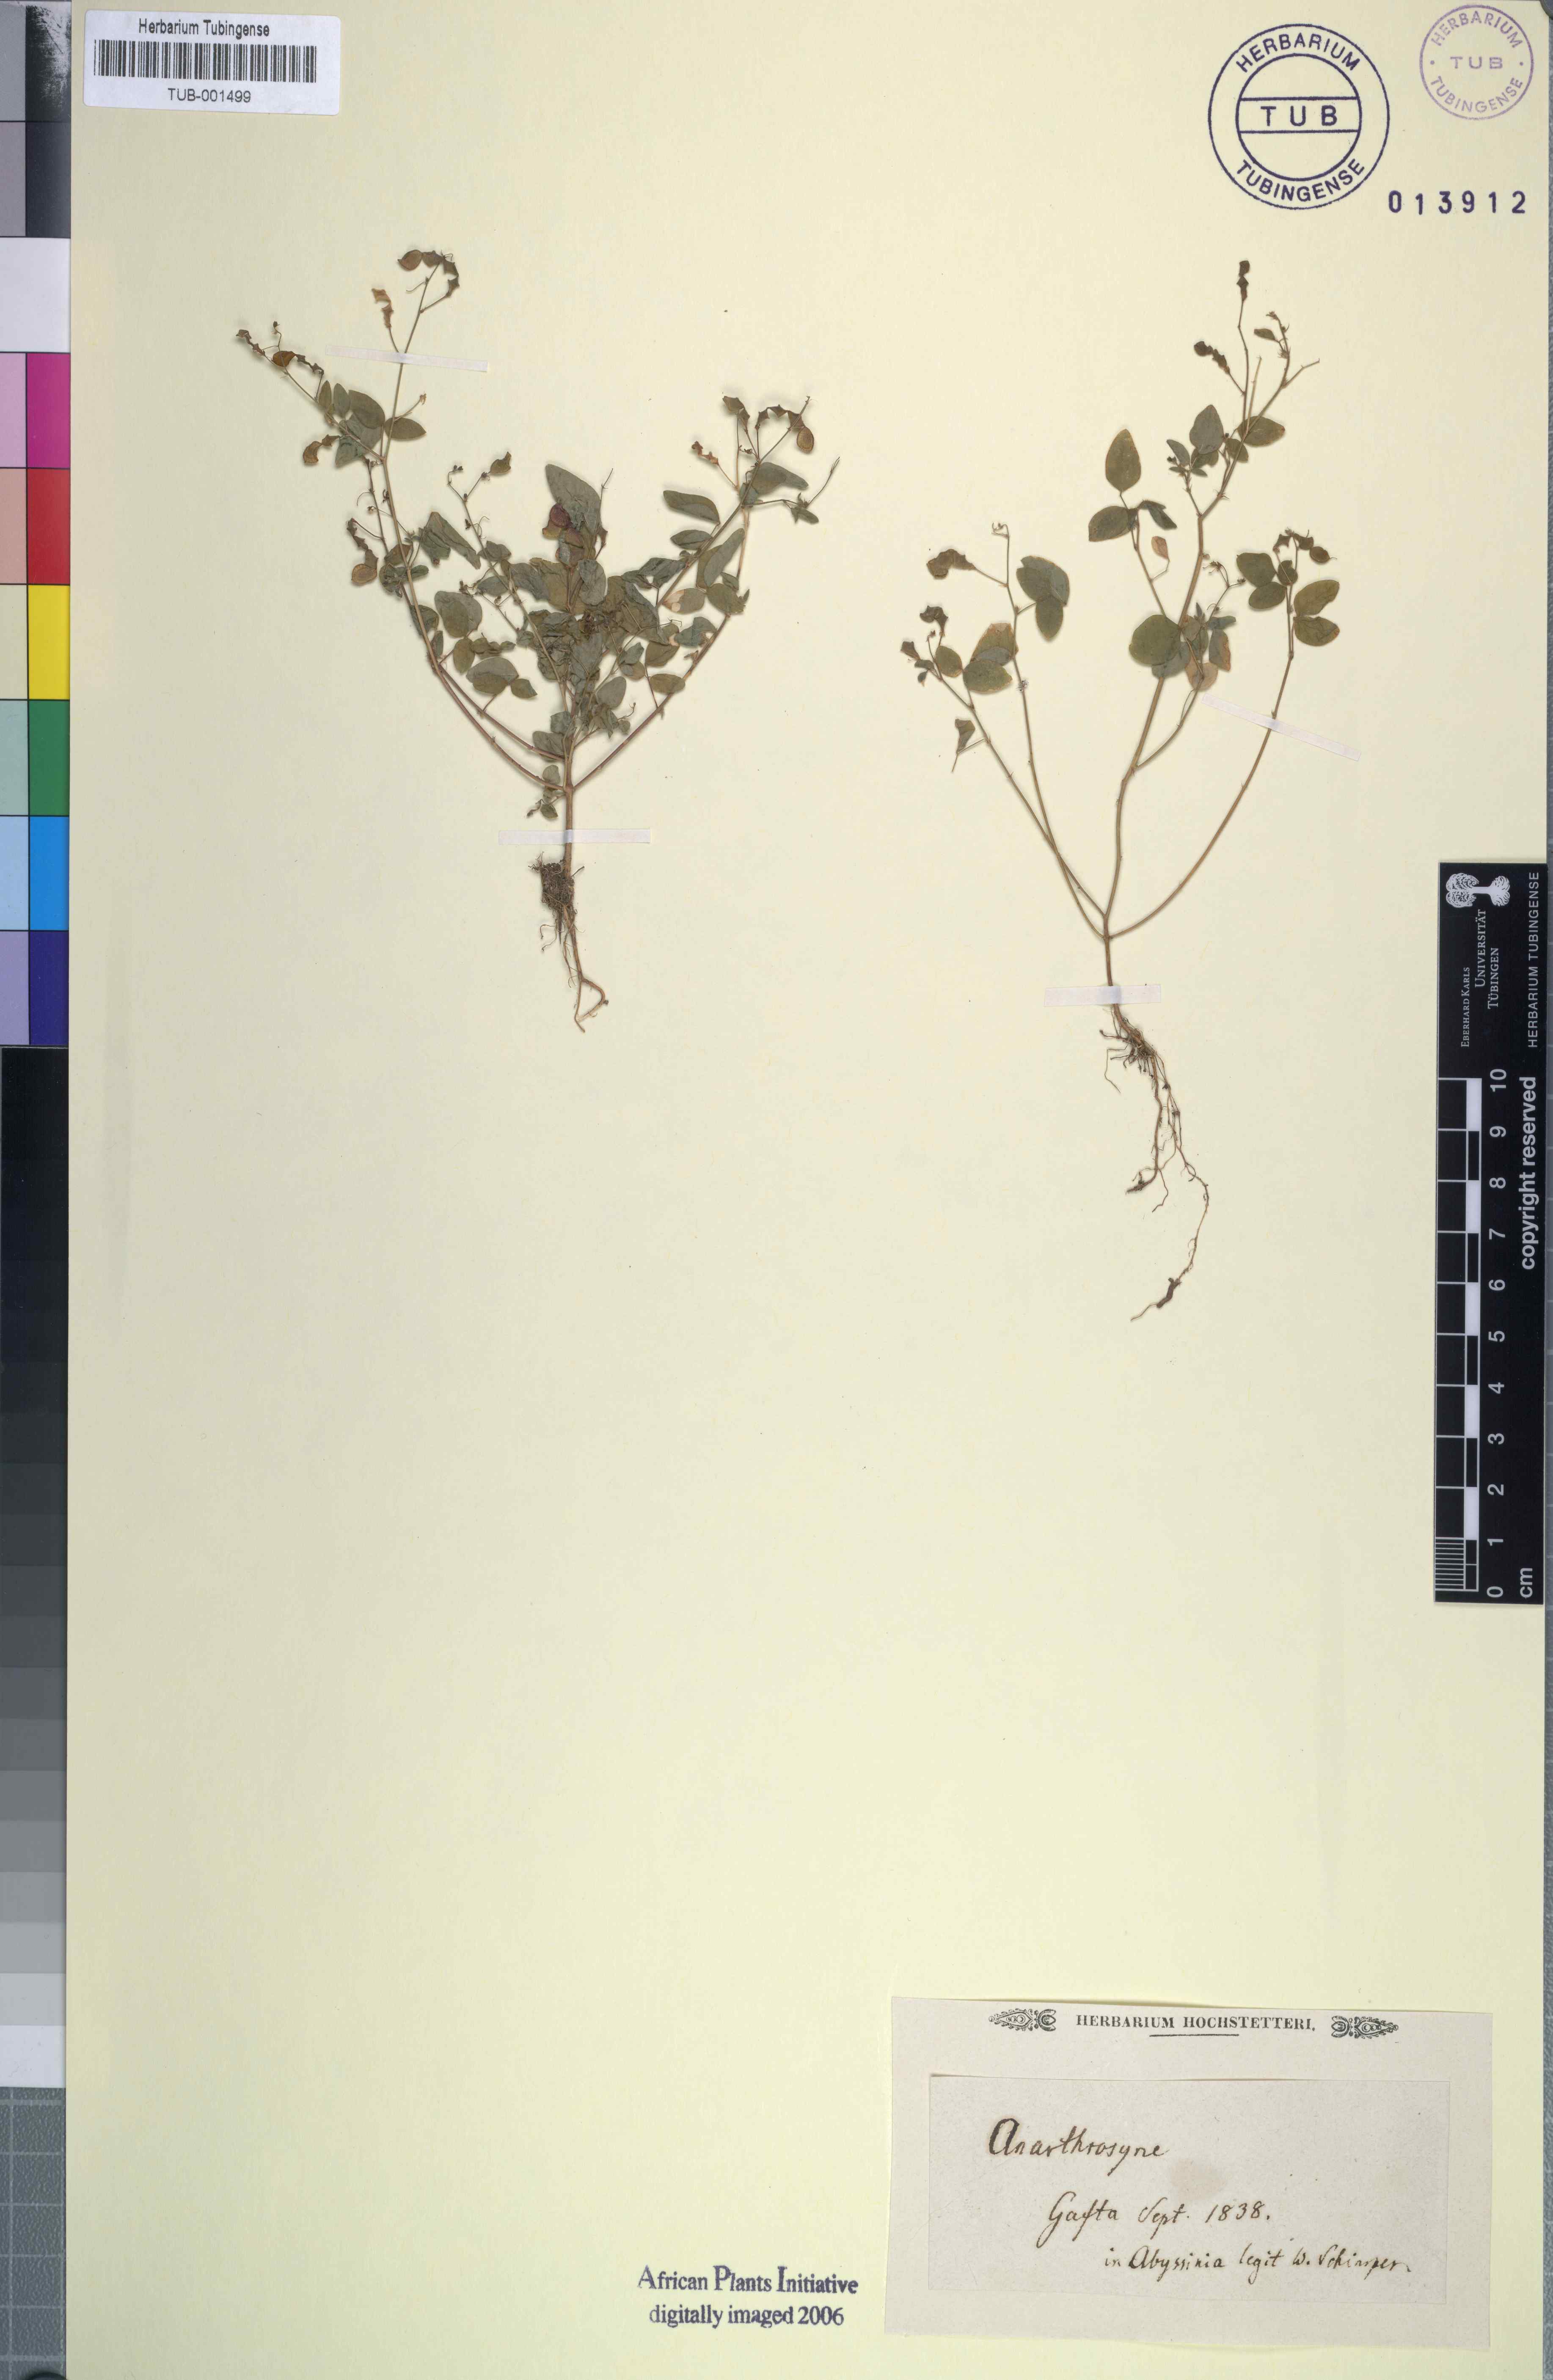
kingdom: Plantae
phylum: Tracheophyta
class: Magnoliopsida
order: Fabales
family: Fabaceae
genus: Pseudarthria
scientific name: Pseudarthria
